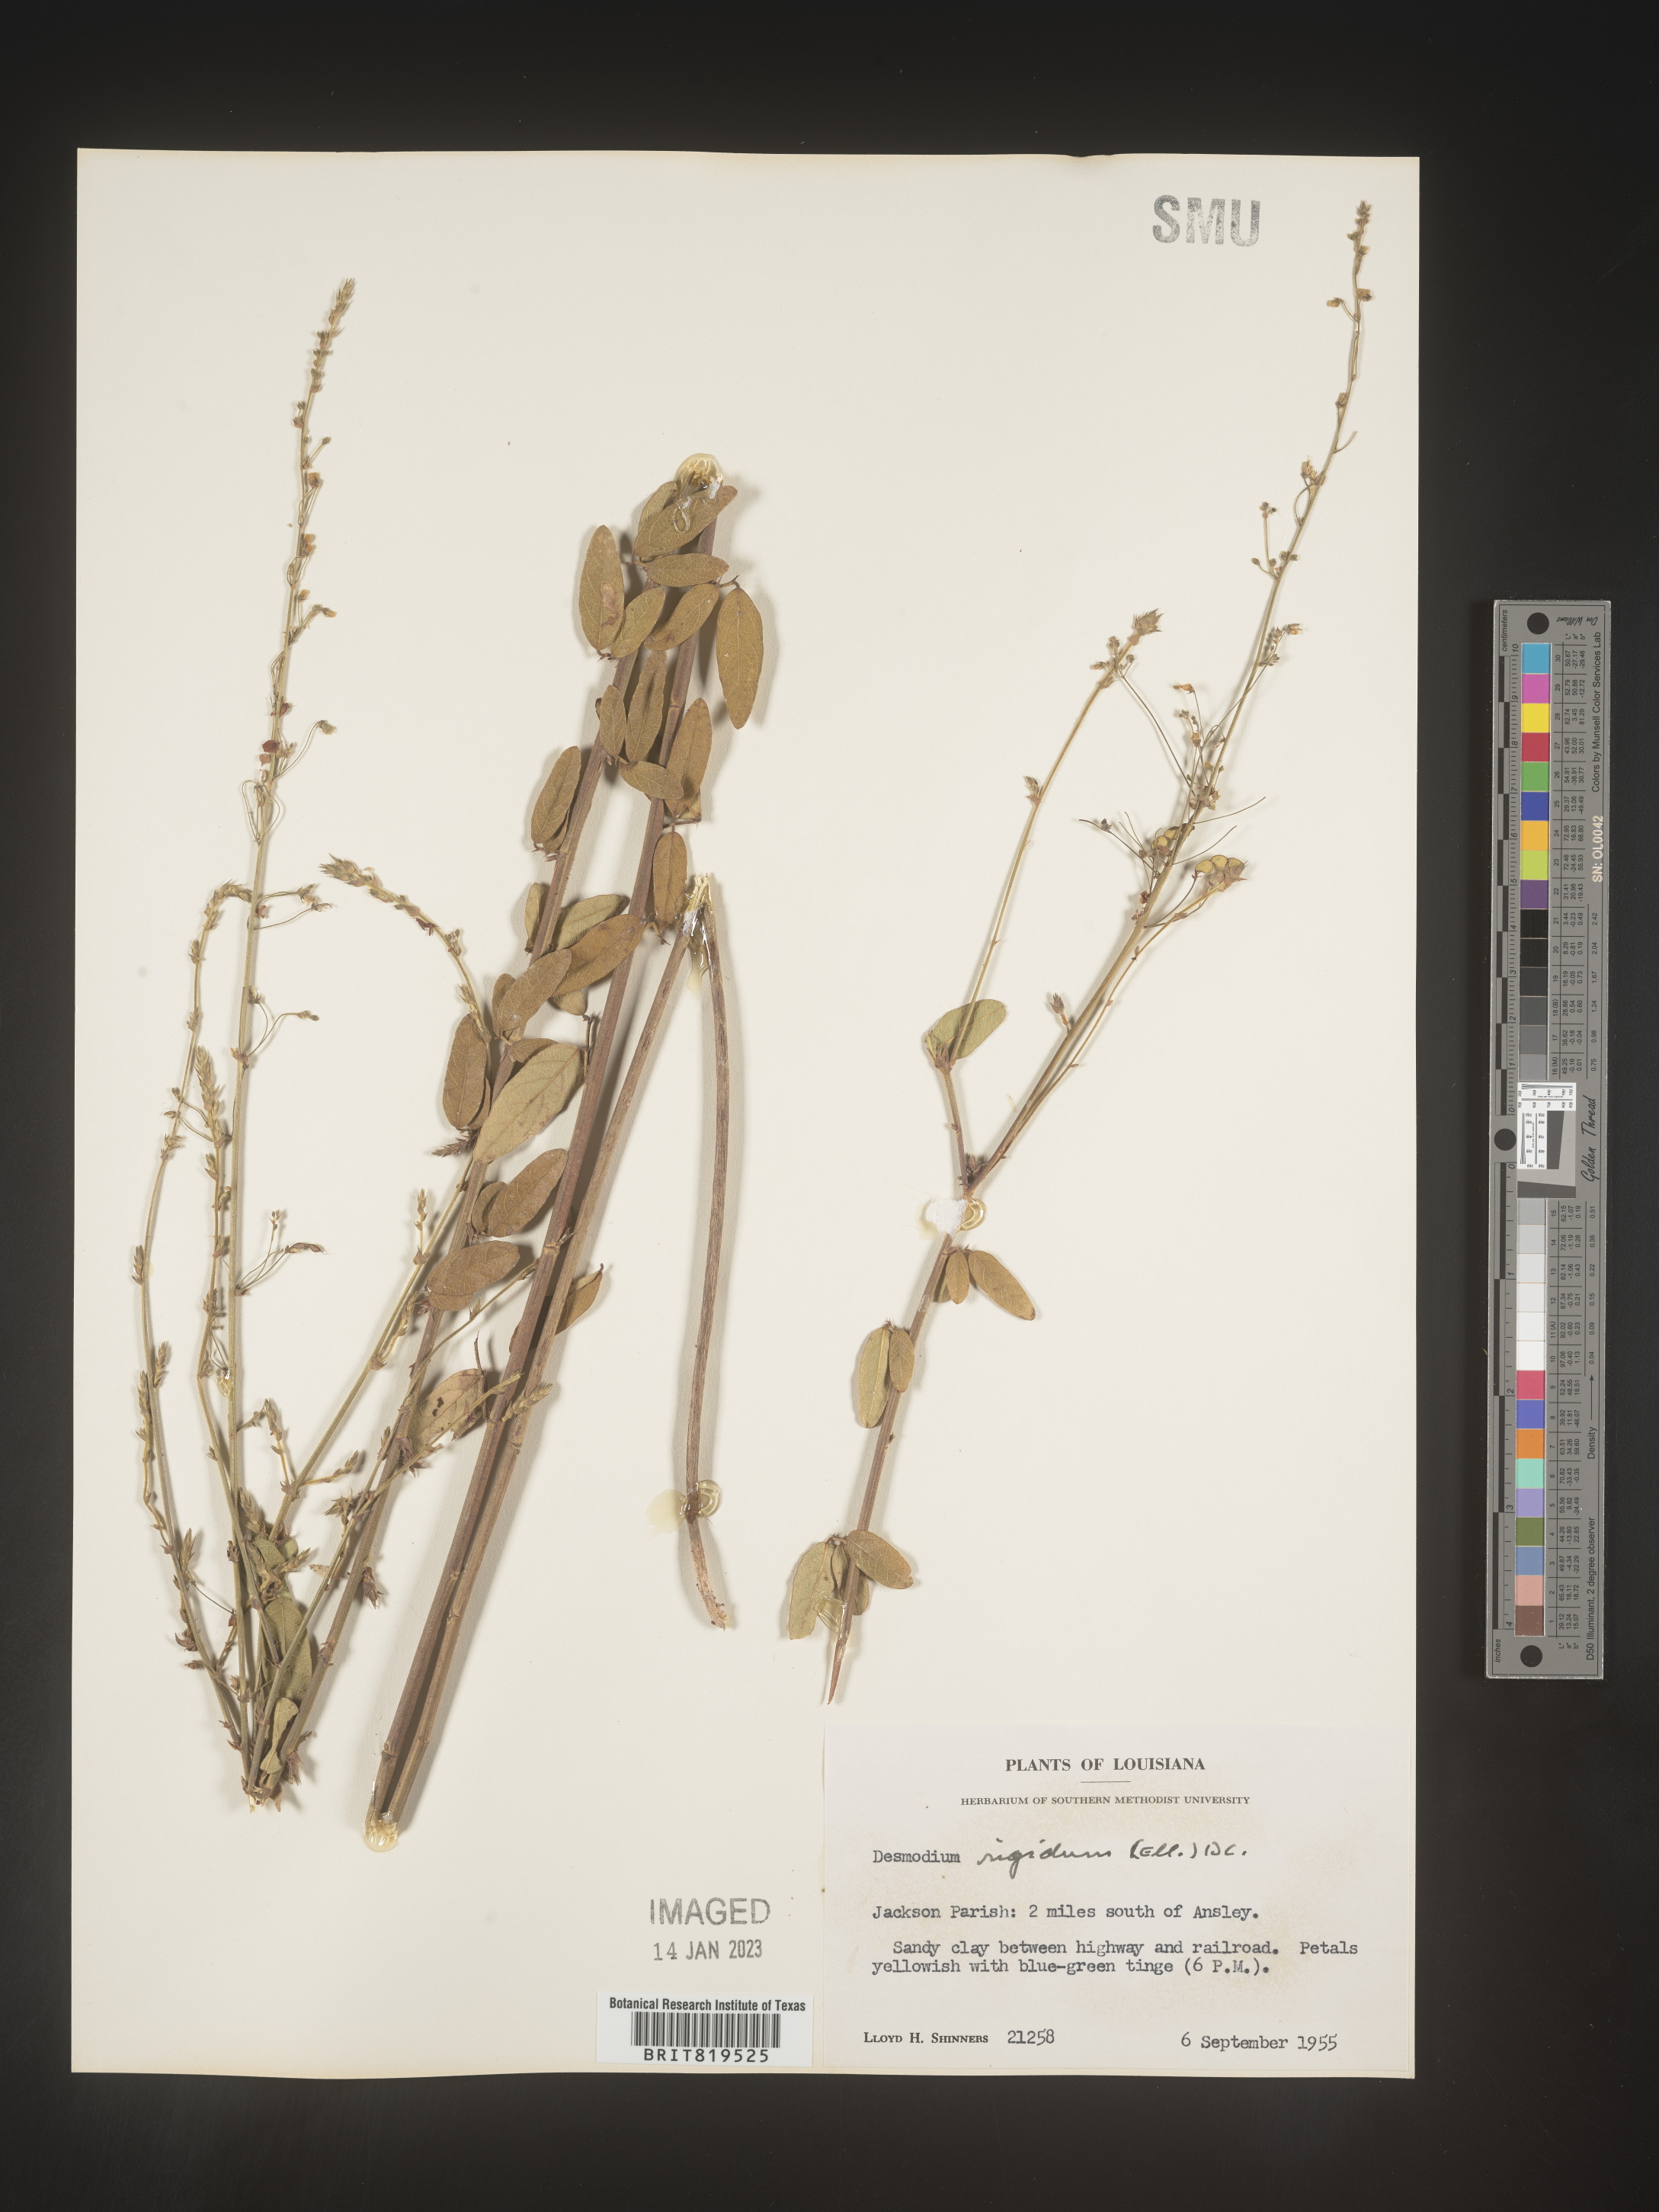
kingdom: Plantae
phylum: Tracheophyta
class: Magnoliopsida
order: Fabales
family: Fabaceae
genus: Desmodium
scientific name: Desmodium
